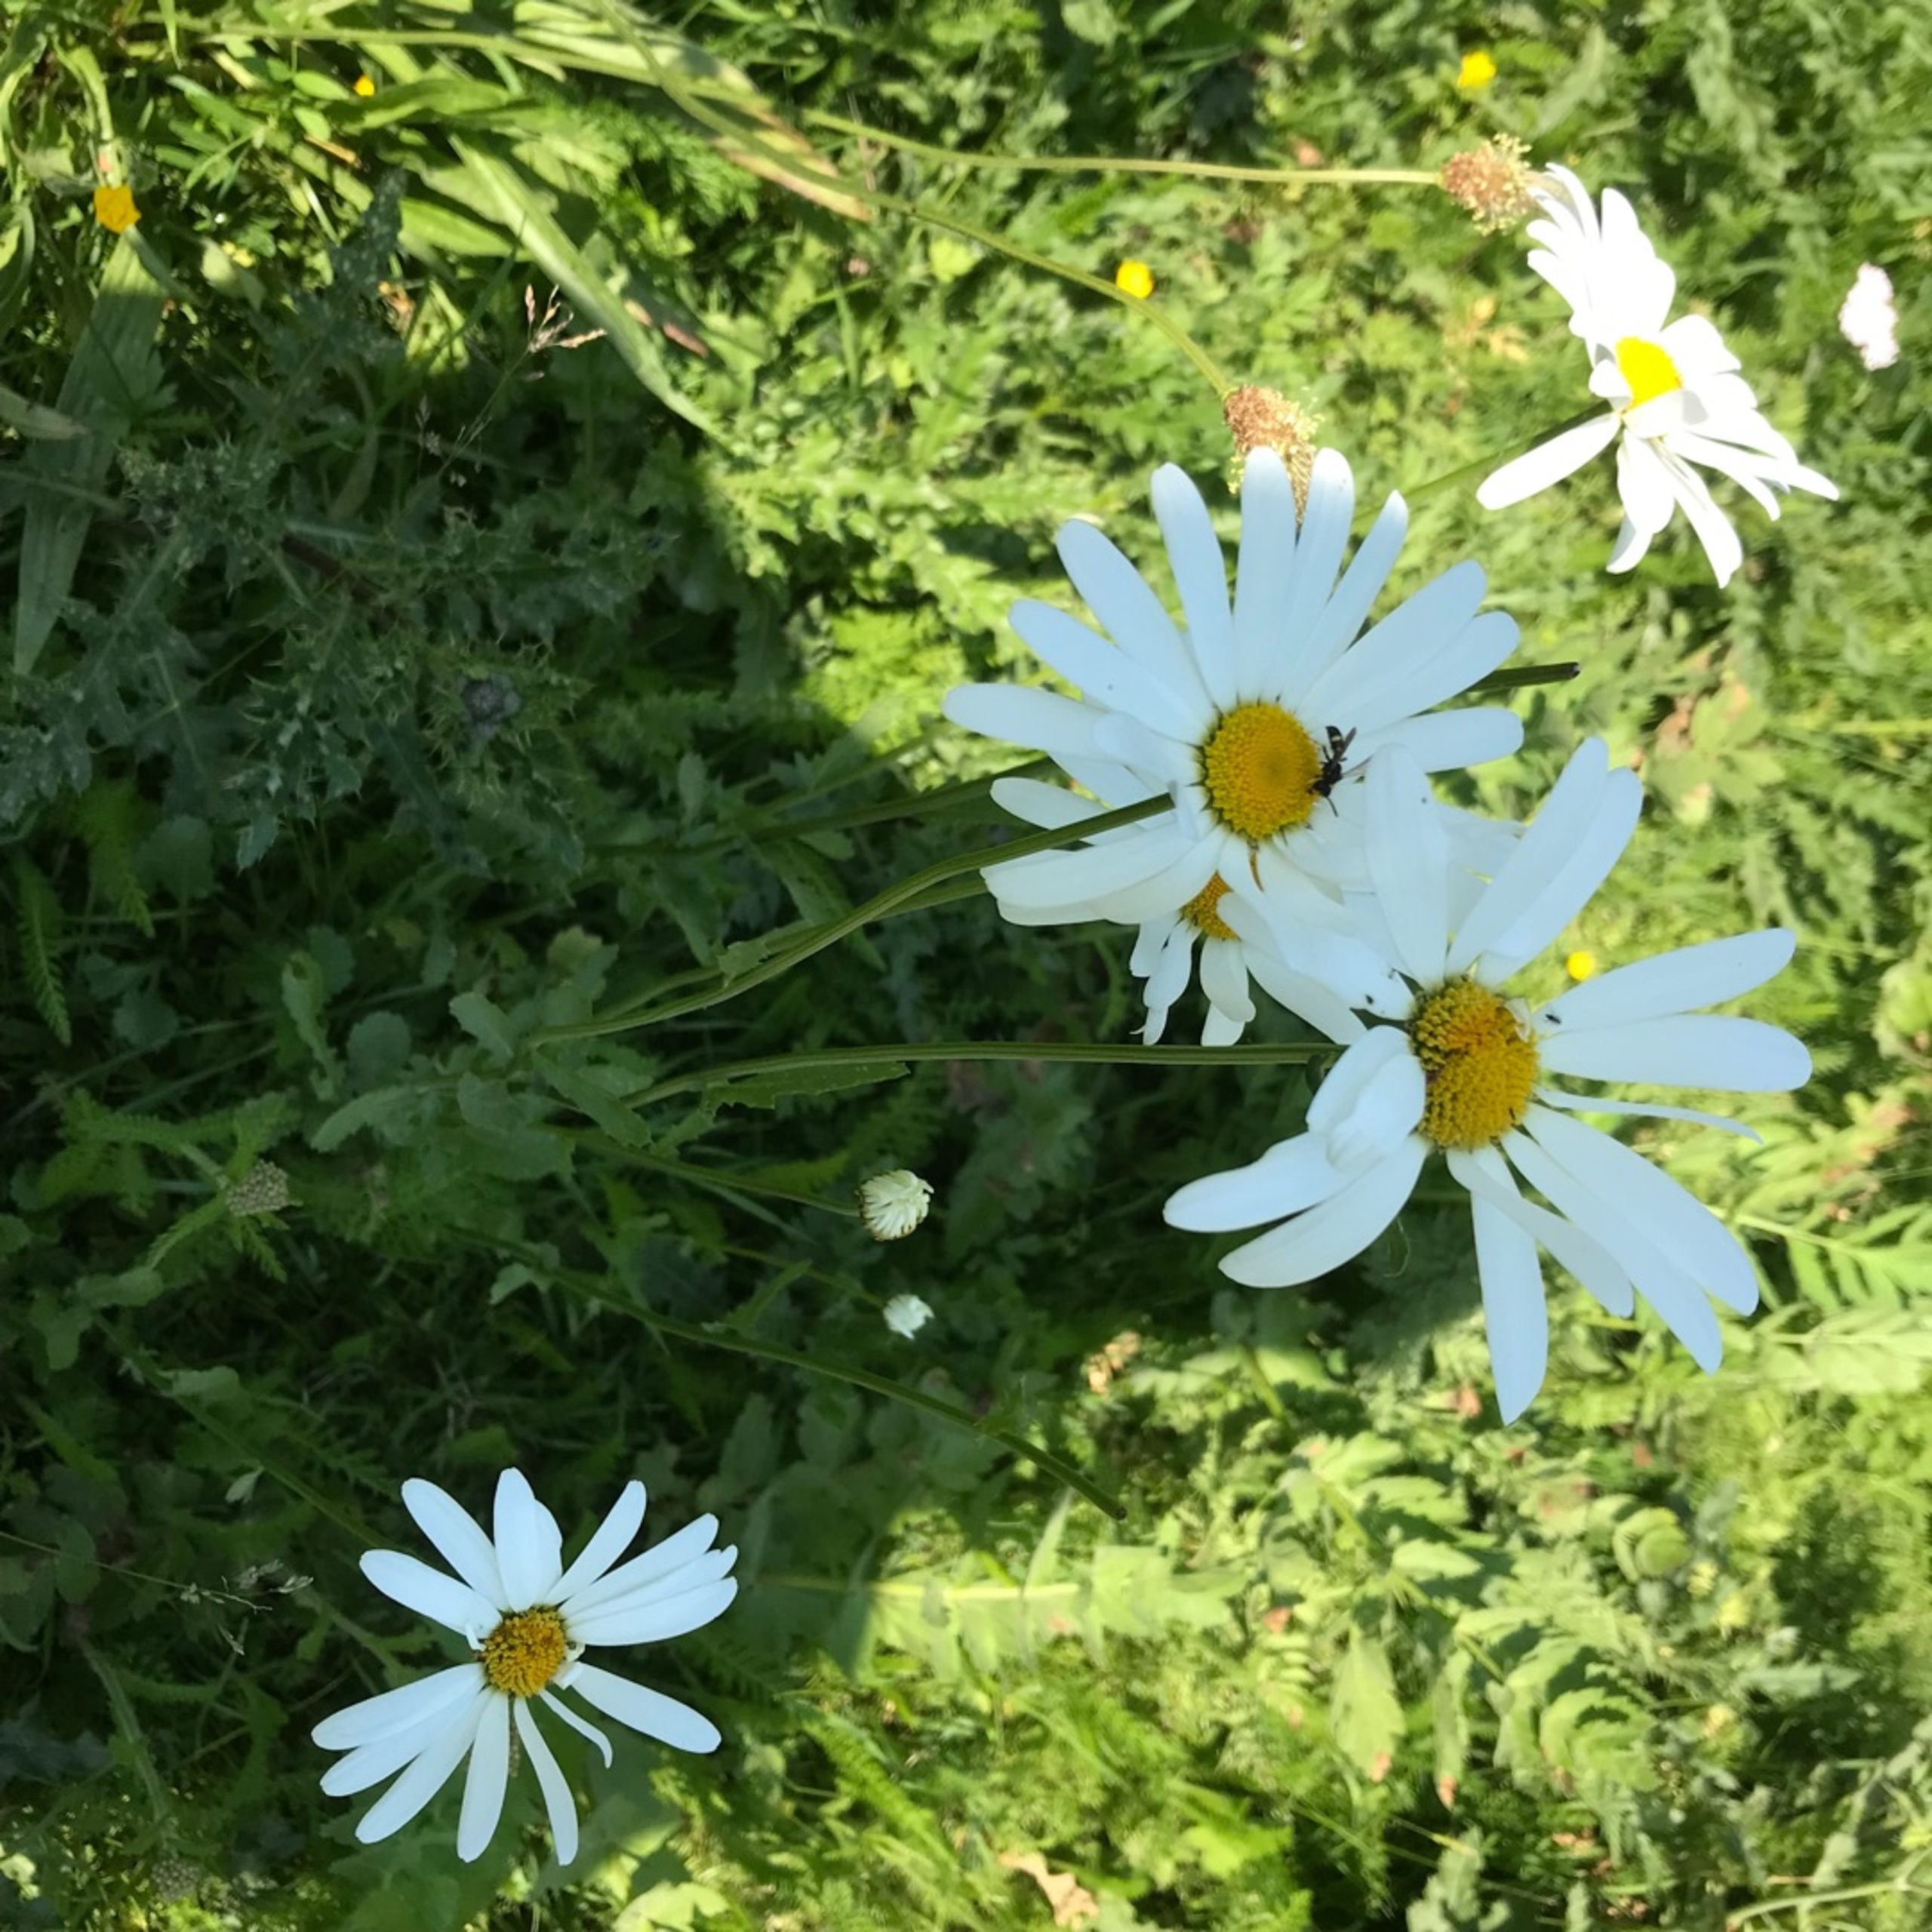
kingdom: Plantae
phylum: Tracheophyta
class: Magnoliopsida
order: Asterales
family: Asteraceae
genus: Leucanthemum
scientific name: Leucanthemum vulgare
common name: Hvid okseøje
